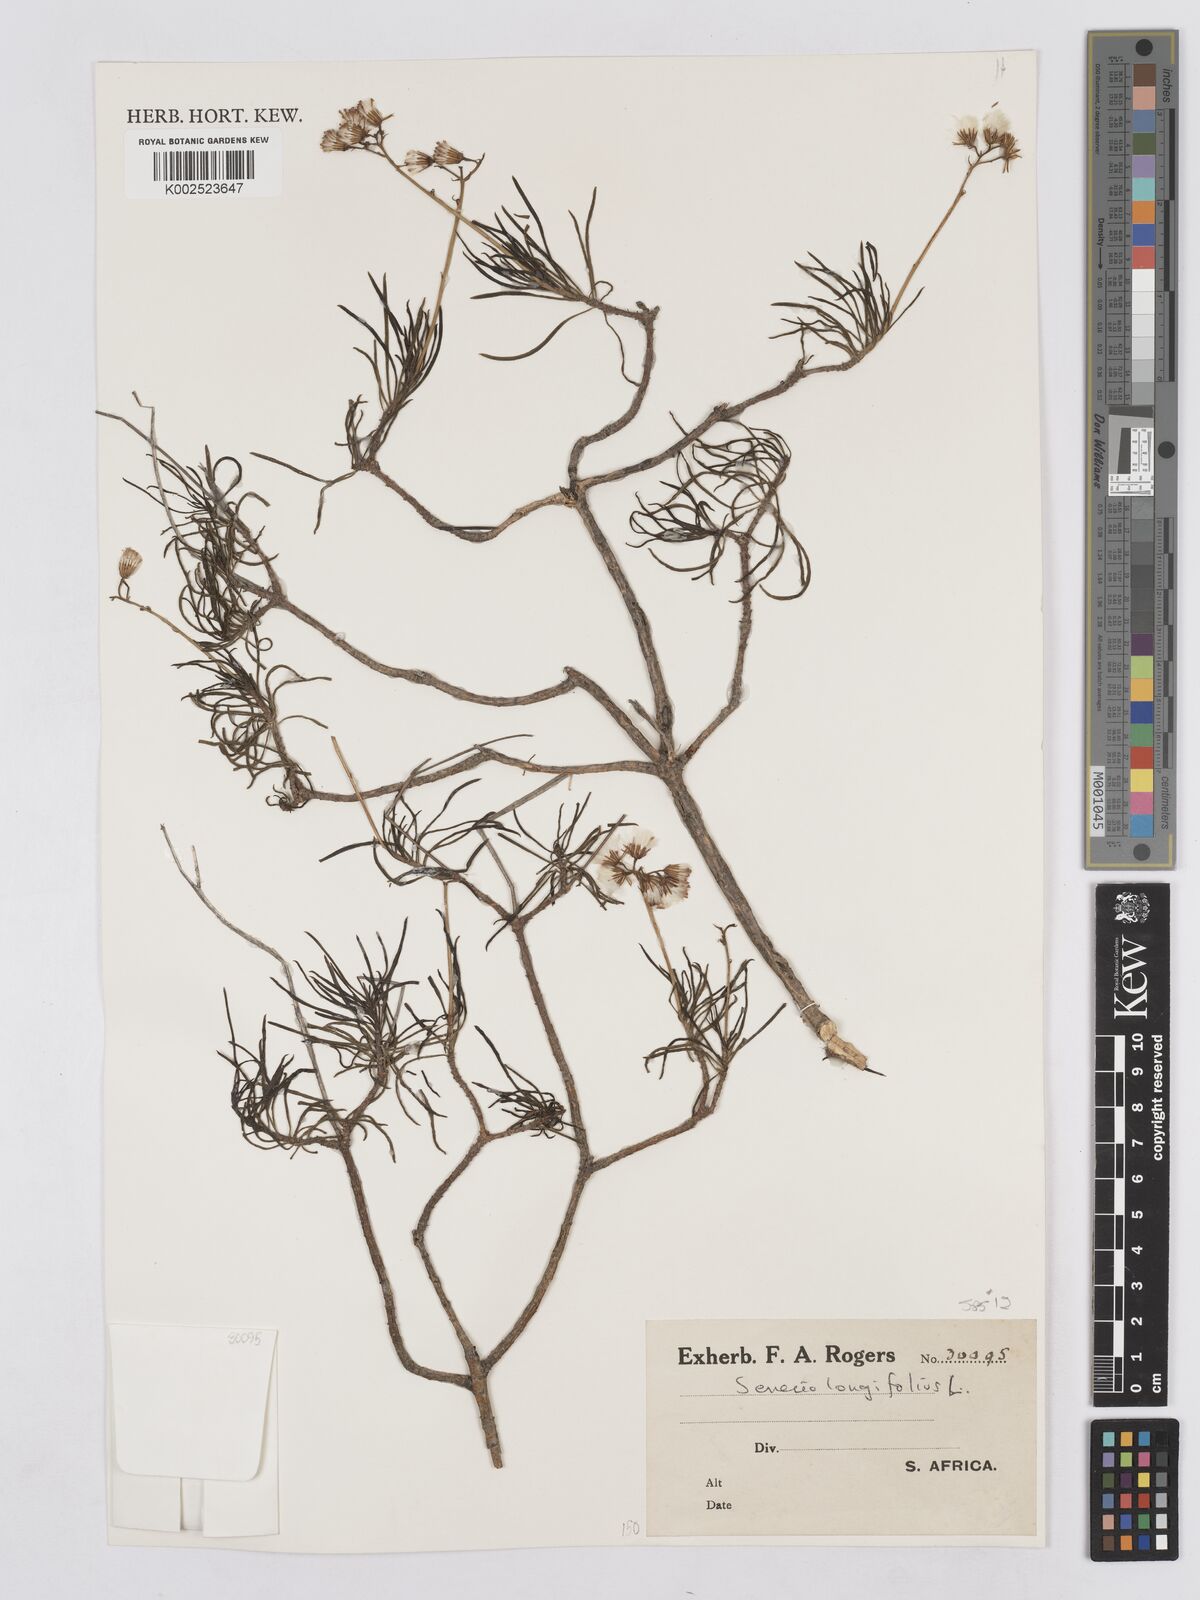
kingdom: Plantae
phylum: Tracheophyta
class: Magnoliopsida
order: Asterales
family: Asteraceae
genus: Senecio
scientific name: Senecio linifolius
